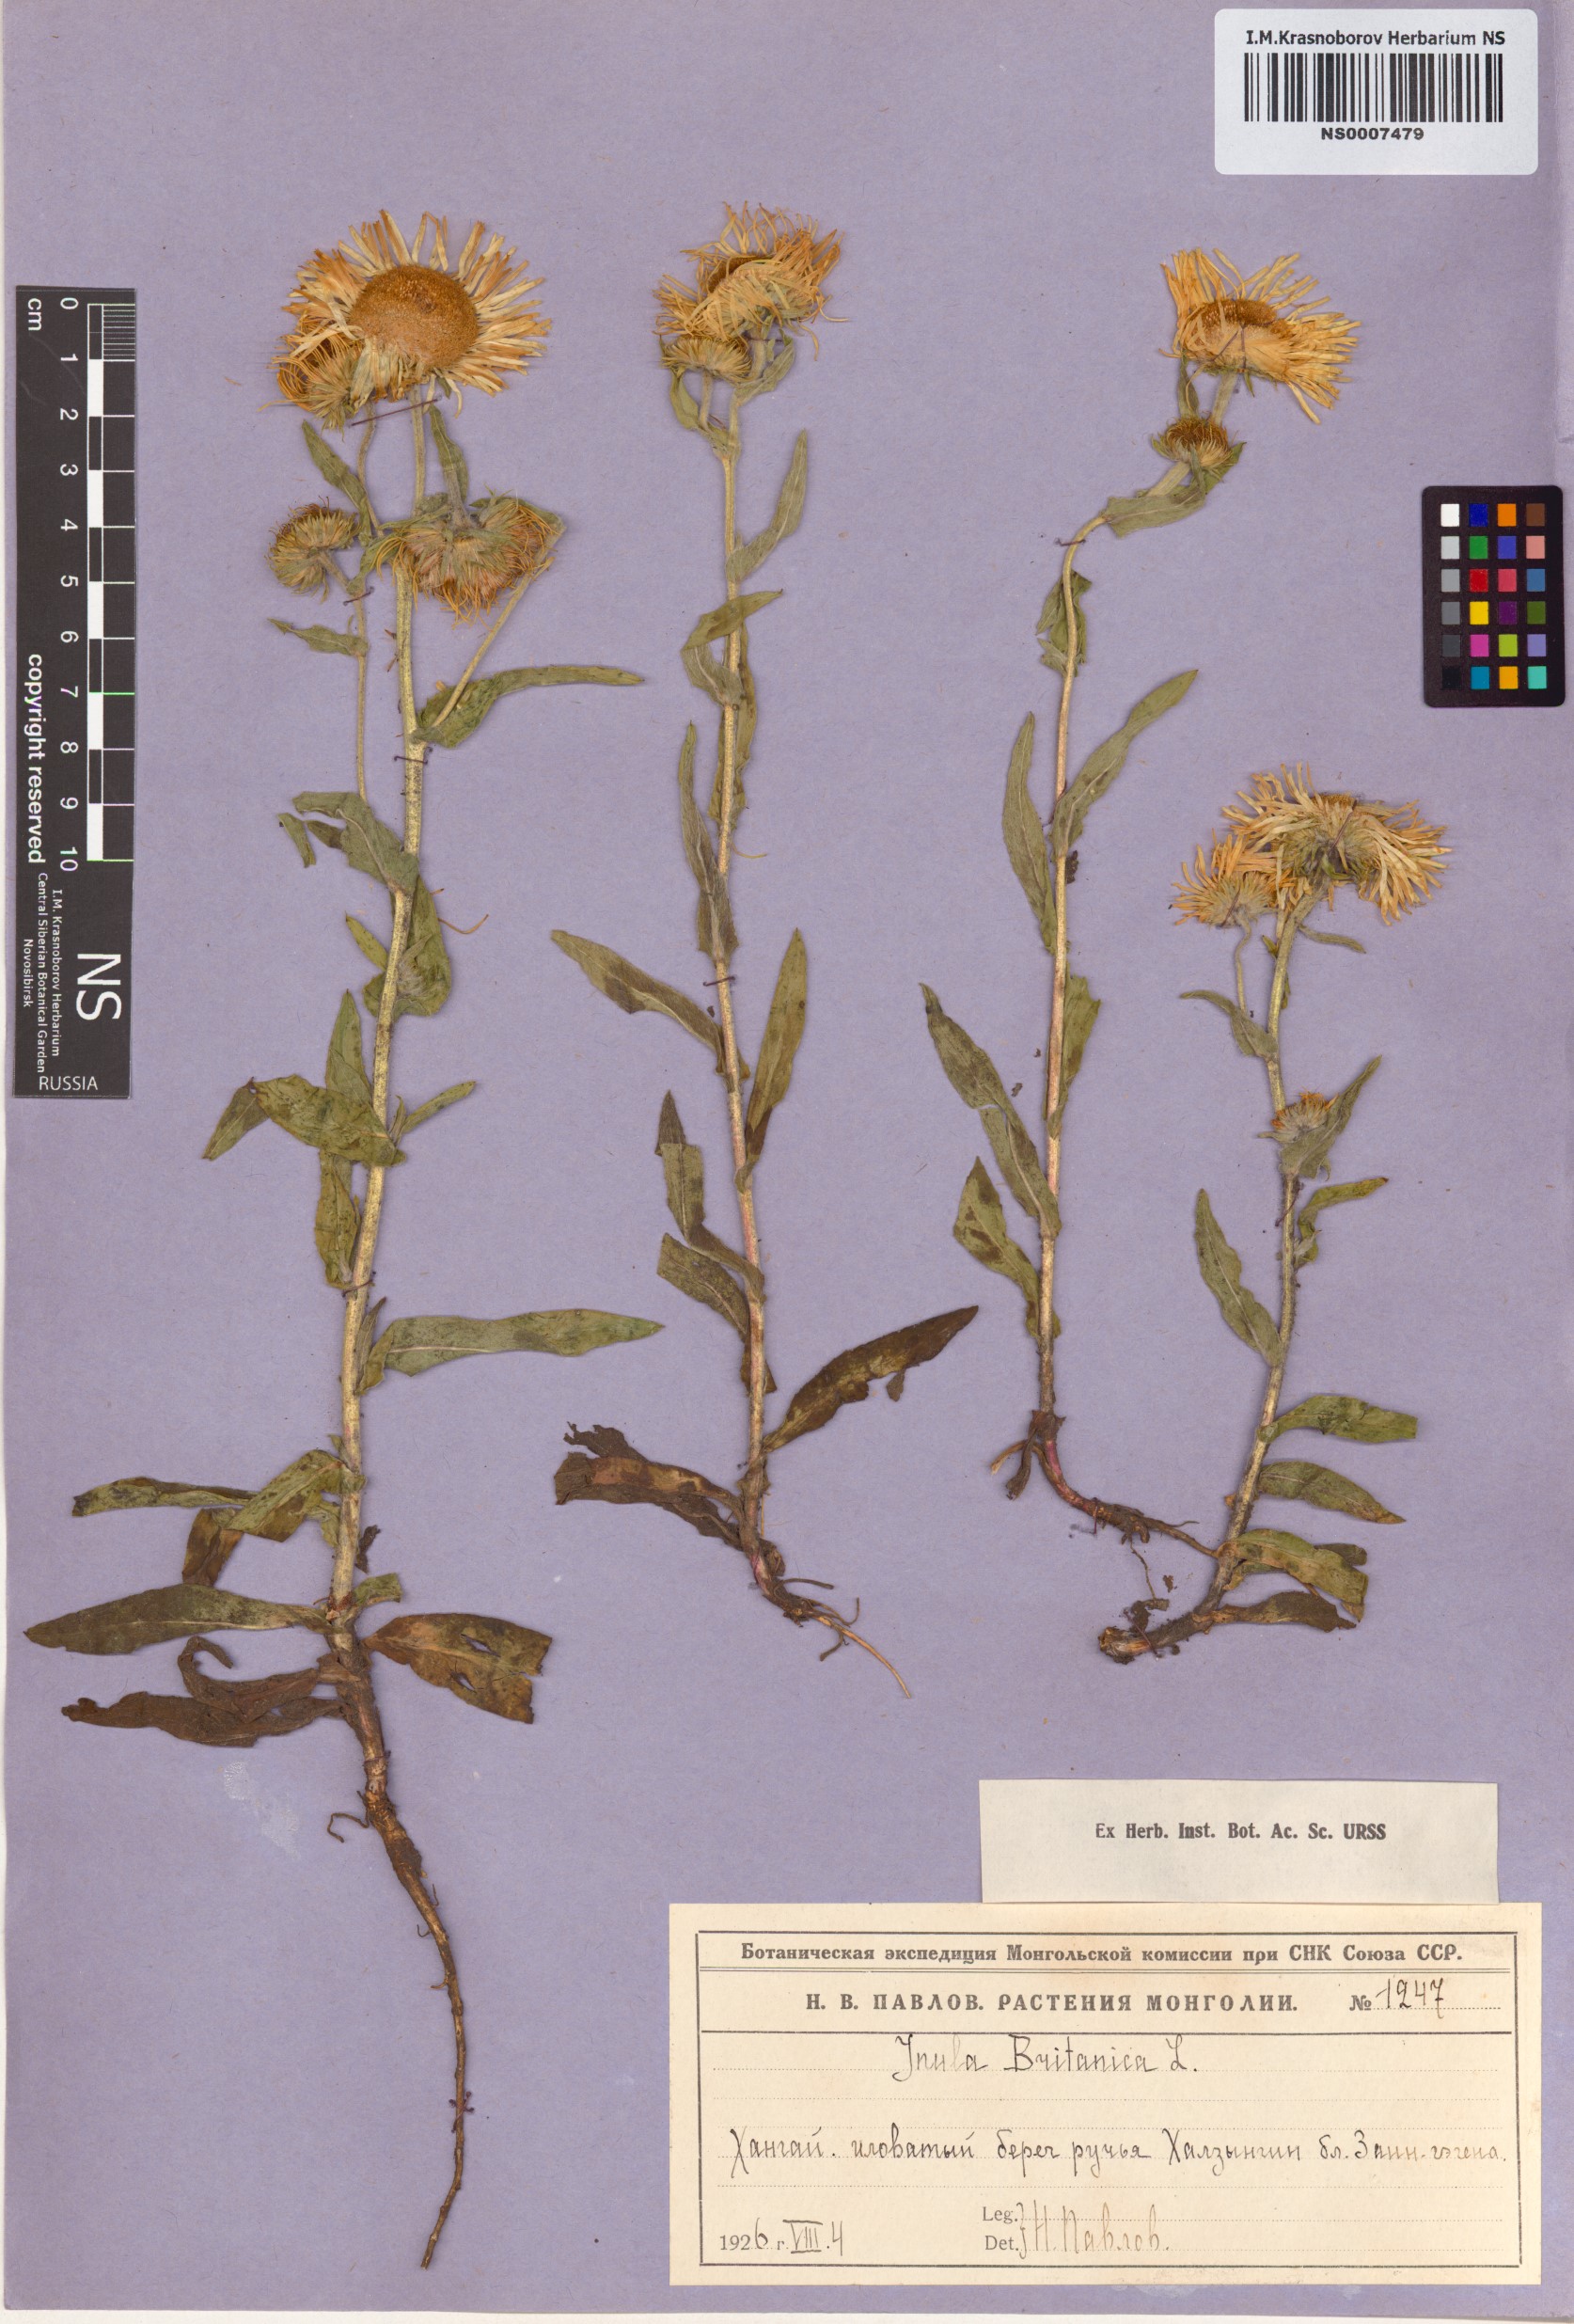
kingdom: Plantae
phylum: Tracheophyta
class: Magnoliopsida
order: Asterales
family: Asteraceae
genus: Pentanema
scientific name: Pentanema britannicum
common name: British elecampane
